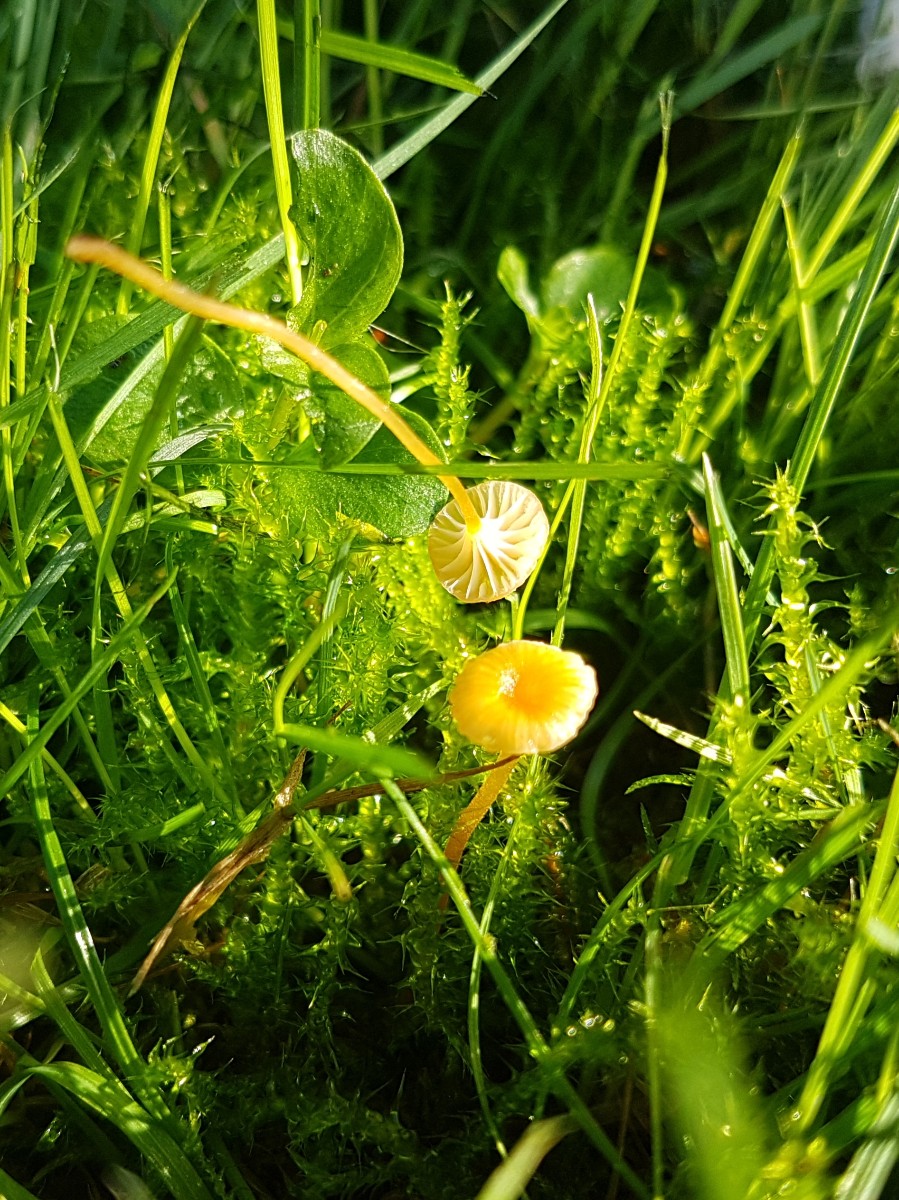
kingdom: Fungi
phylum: Basidiomycota
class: Agaricomycetes
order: Hymenochaetales
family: Rickenellaceae
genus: Rickenella
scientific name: Rickenella fibula
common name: orange mosnavlehat
